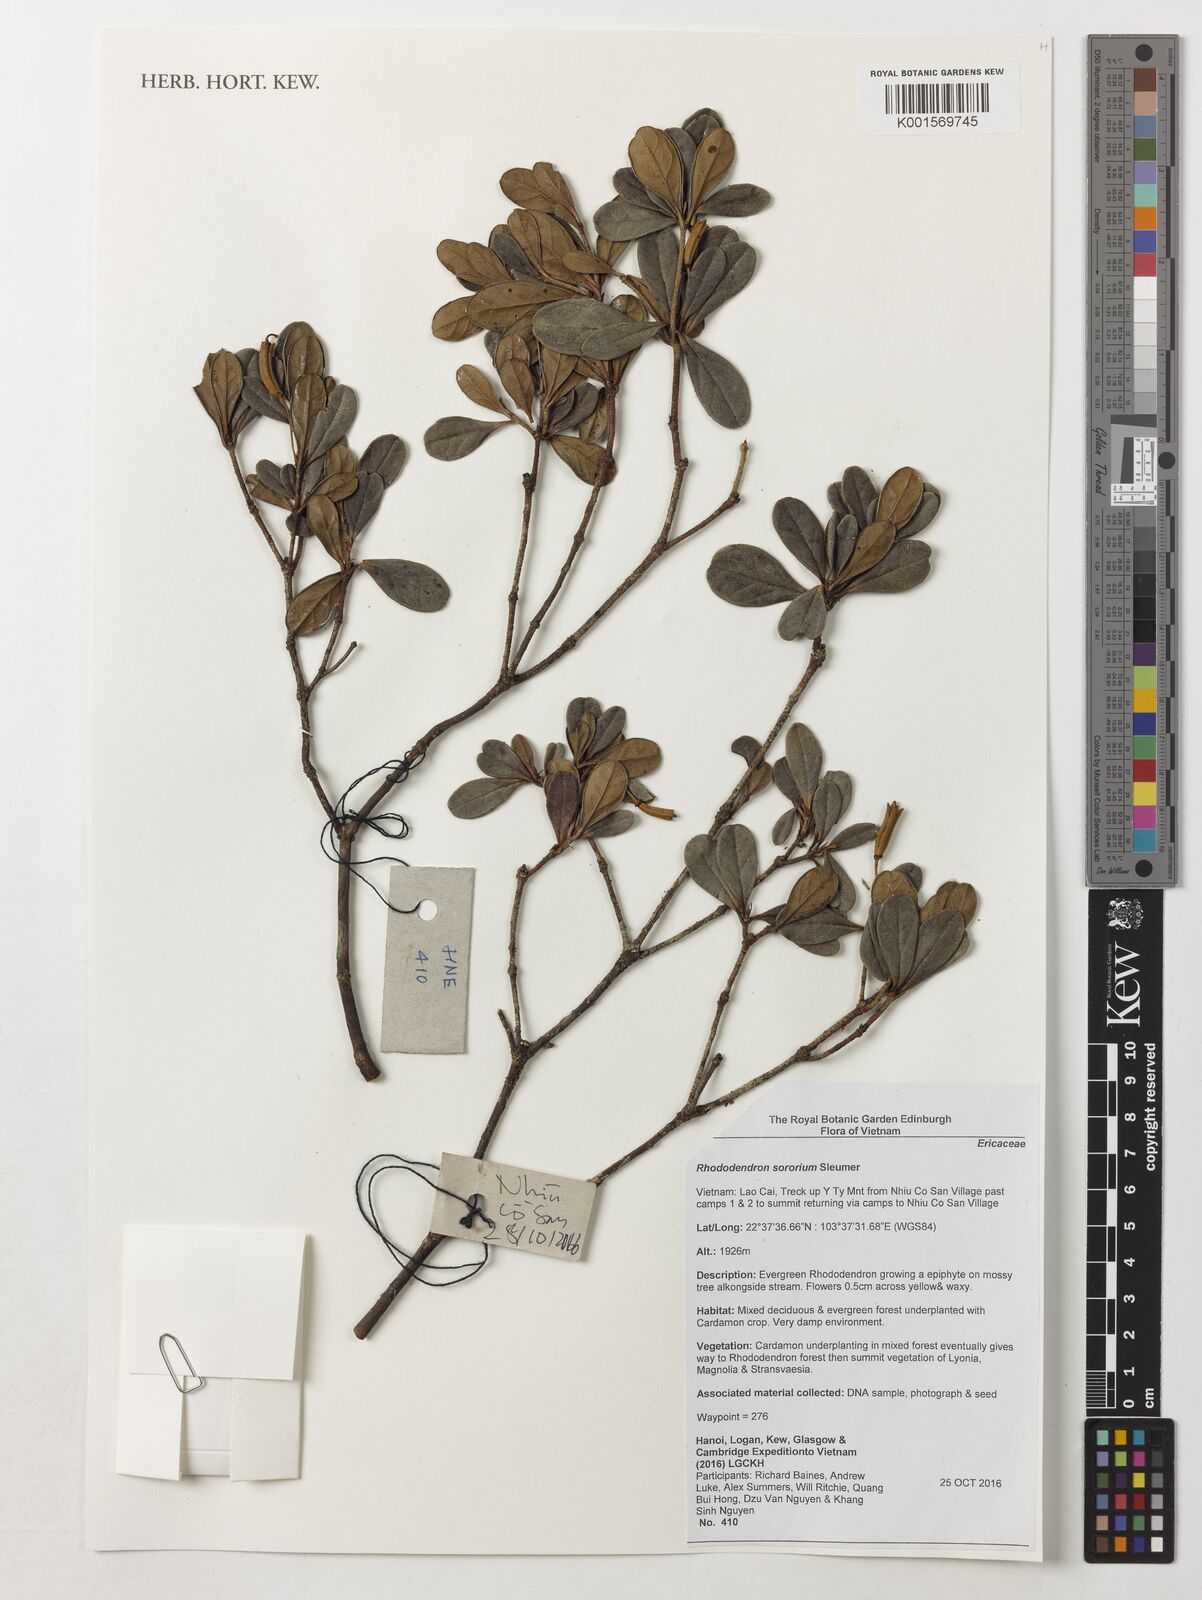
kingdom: Plantae
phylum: Tracheophyta
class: Magnoliopsida
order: Ericales
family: Ericaceae
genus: Rhododendron
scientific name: Rhododendron sororium
